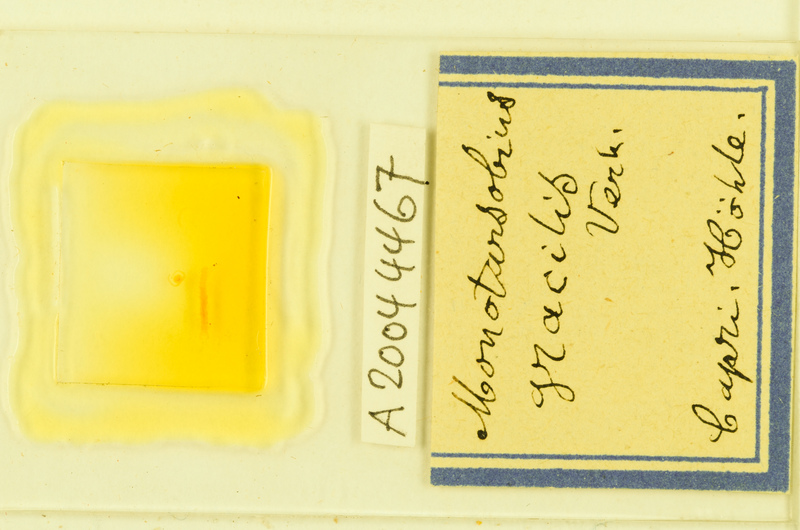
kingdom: Animalia
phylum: Arthropoda
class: Chilopoda
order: Lithobiomorpha
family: Lithobiidae
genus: Lithobius
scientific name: Lithobius dahlii
